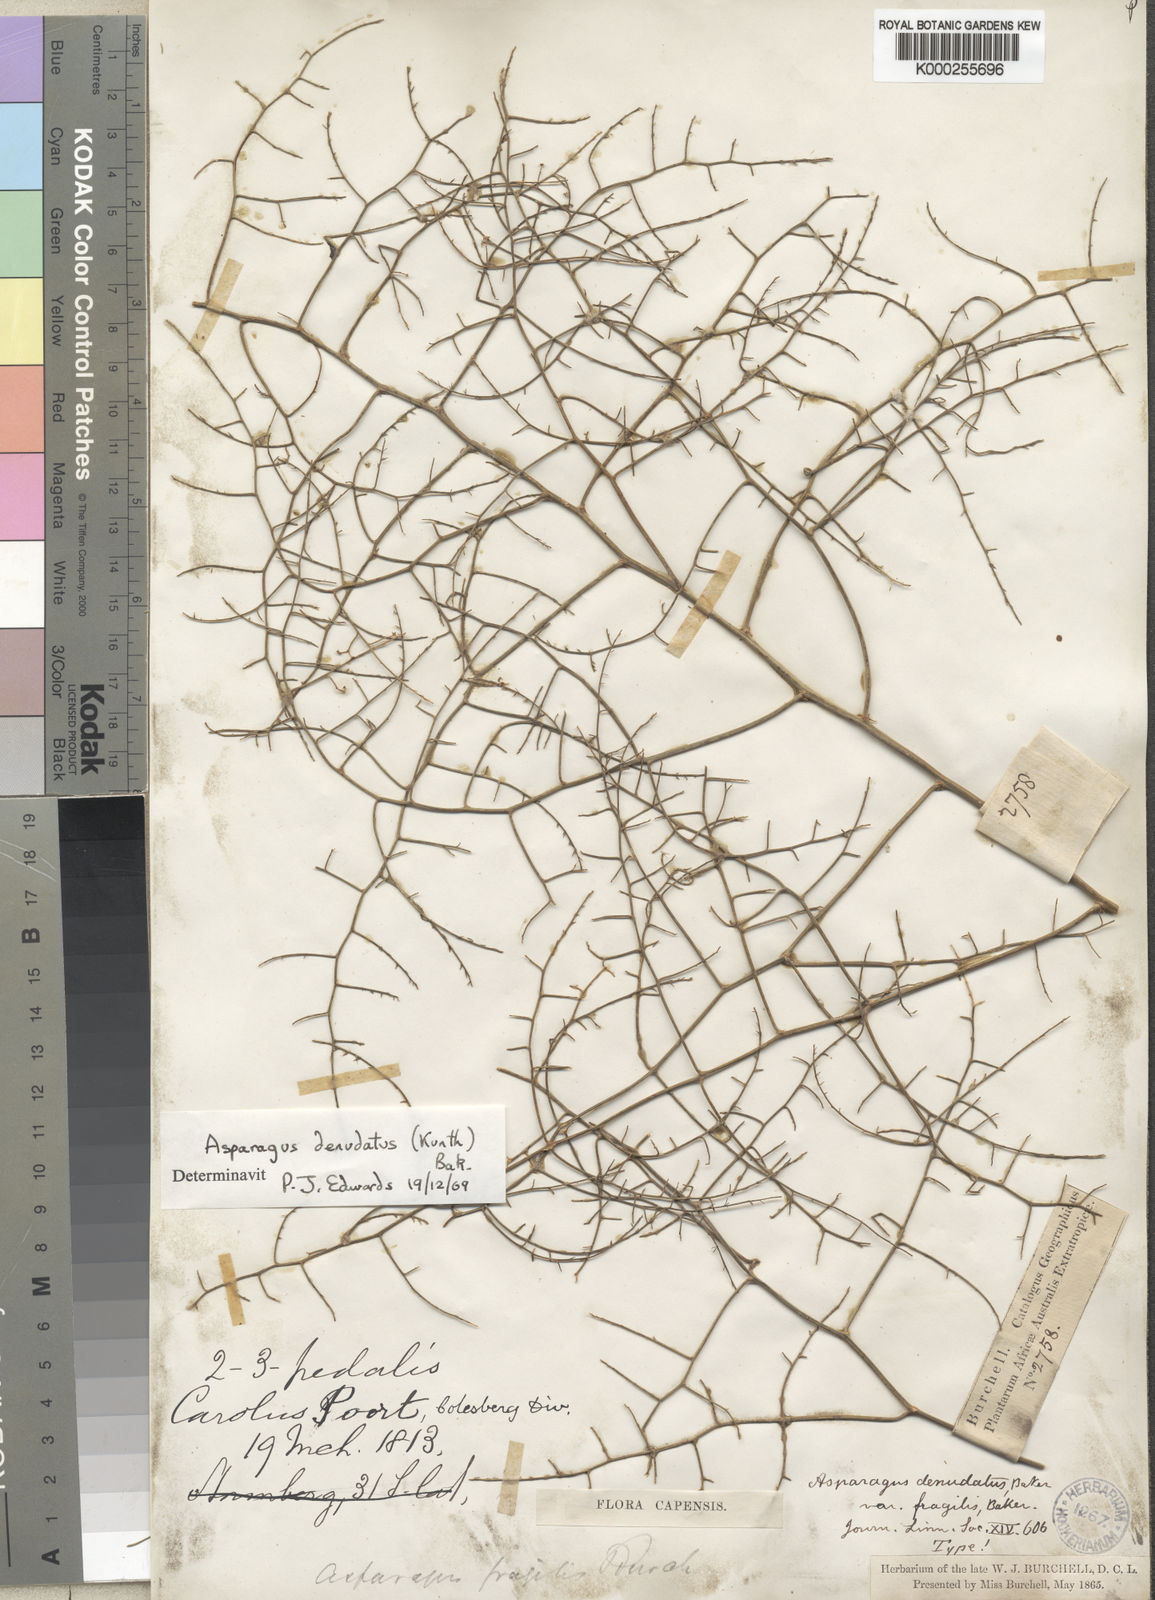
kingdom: Plantae
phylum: Tracheophyta
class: Liliopsida
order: Asparagales
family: Asparagaceae
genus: Asparagus
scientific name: Asparagus denudatus
